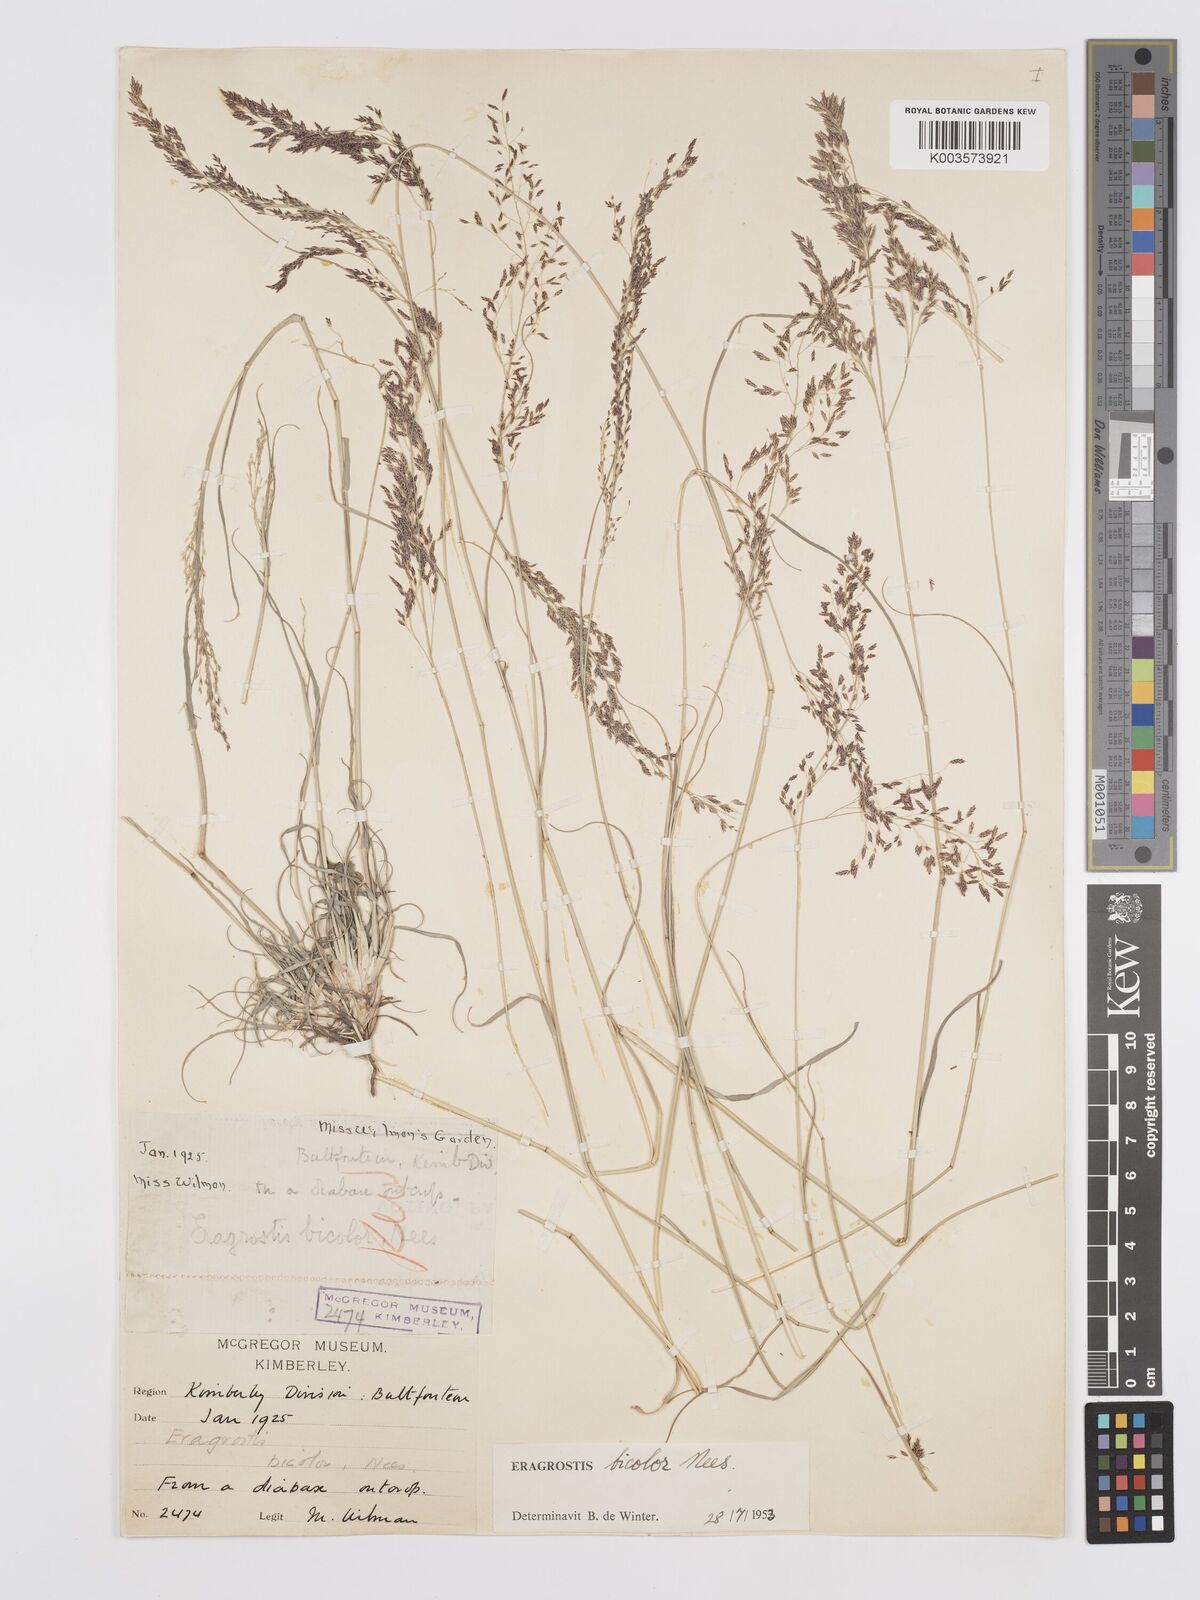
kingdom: Plantae
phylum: Tracheophyta
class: Liliopsida
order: Poales
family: Poaceae
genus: Eragrostis
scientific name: Eragrostis
